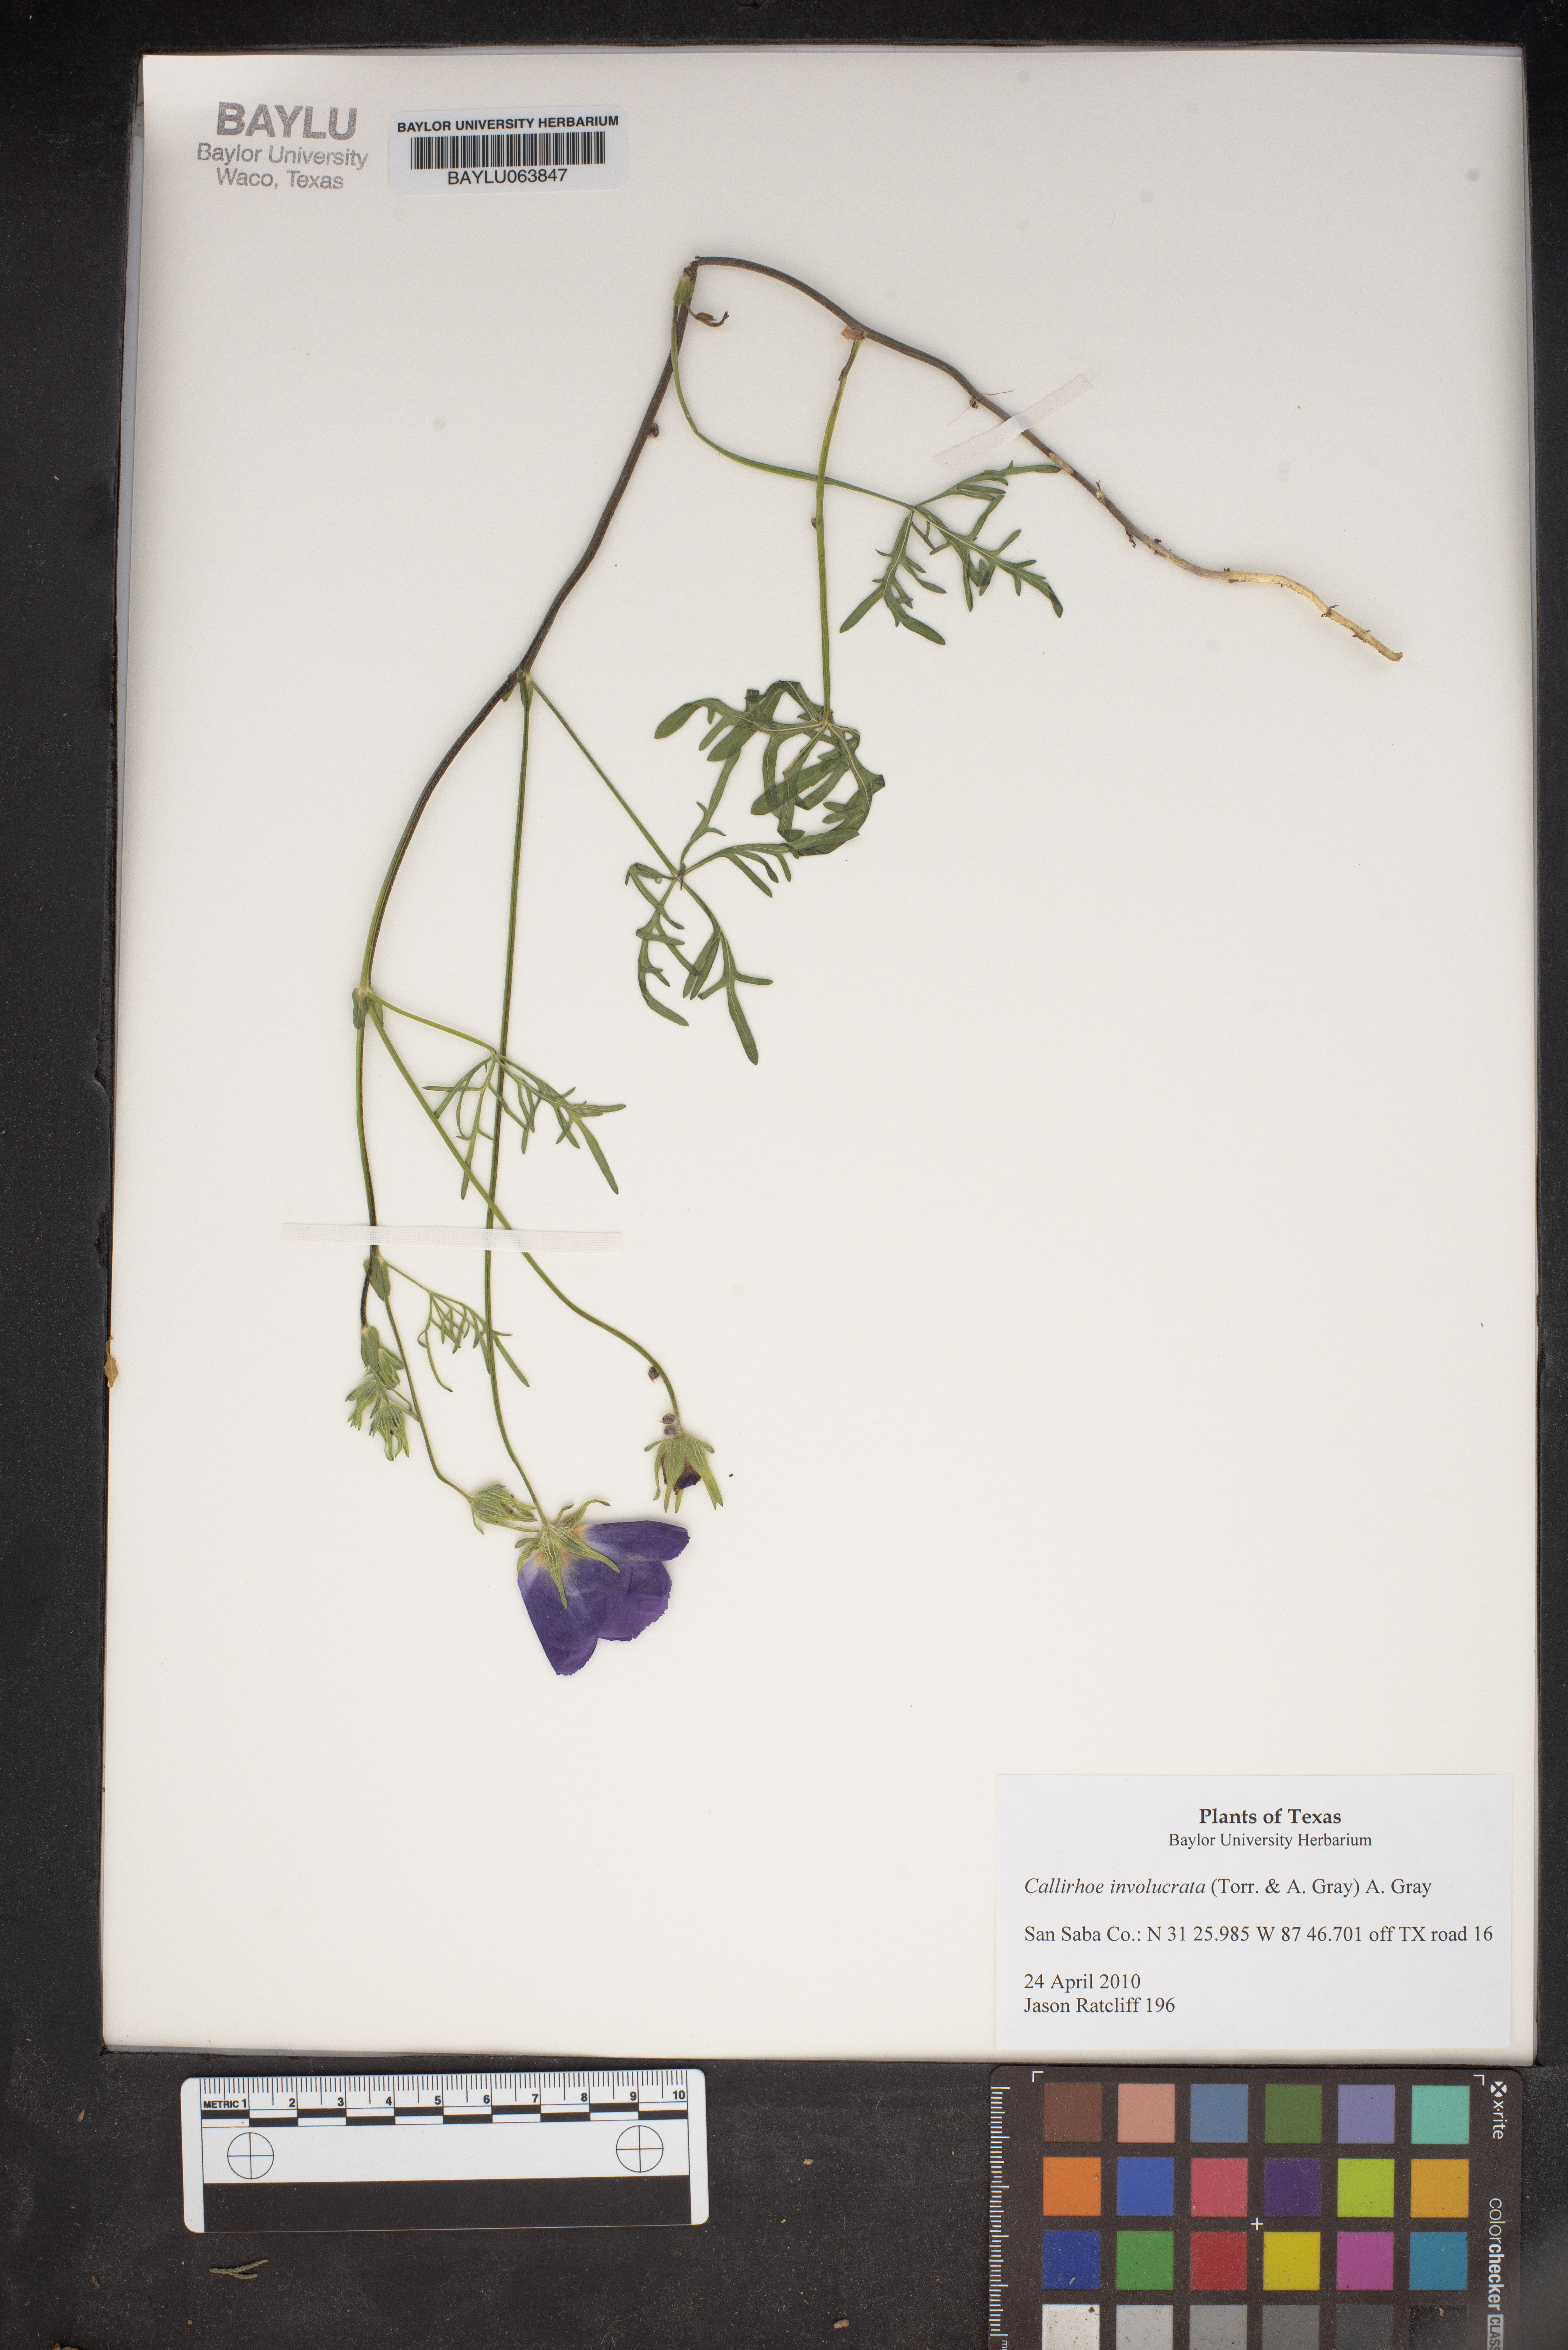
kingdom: Plantae
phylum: Tracheophyta
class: Magnoliopsida
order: Malvales
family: Malvaceae
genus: Callirhoe
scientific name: Callirhoe involucrata
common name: Purple poppy-mallow
